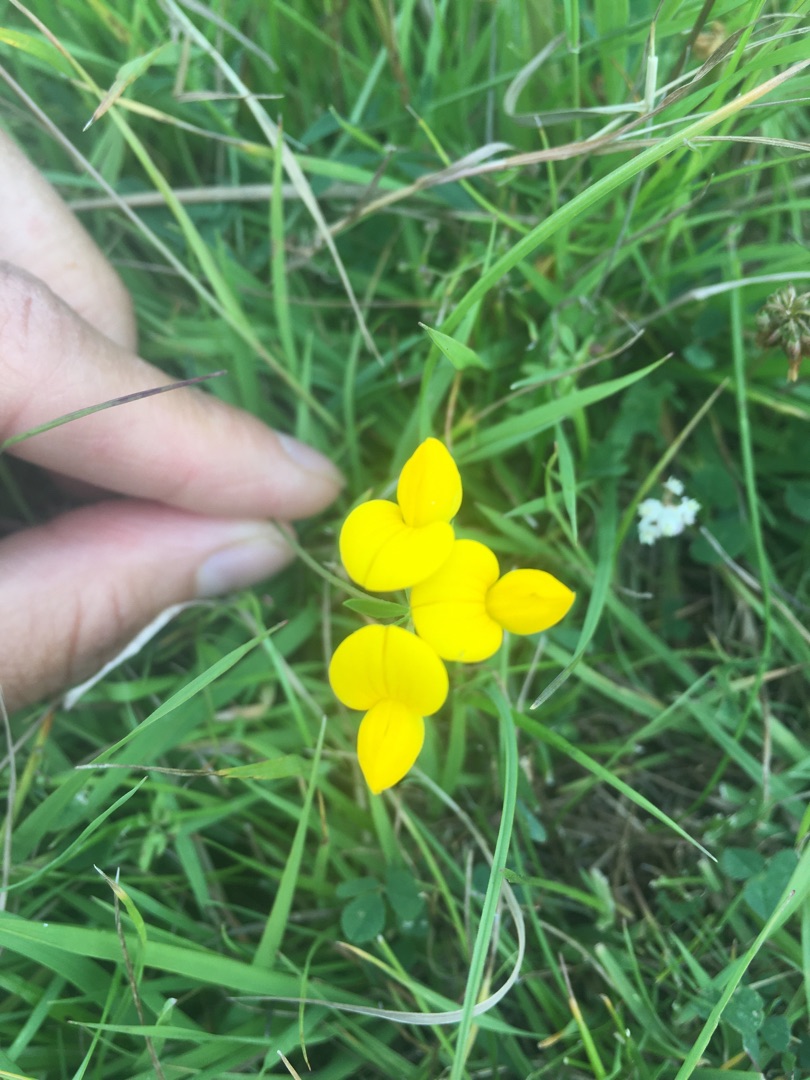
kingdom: Plantae
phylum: Tracheophyta
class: Magnoliopsida
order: Fabales
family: Fabaceae
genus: Lotus
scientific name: Lotus tenuis
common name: Smalbladet kællingetand
